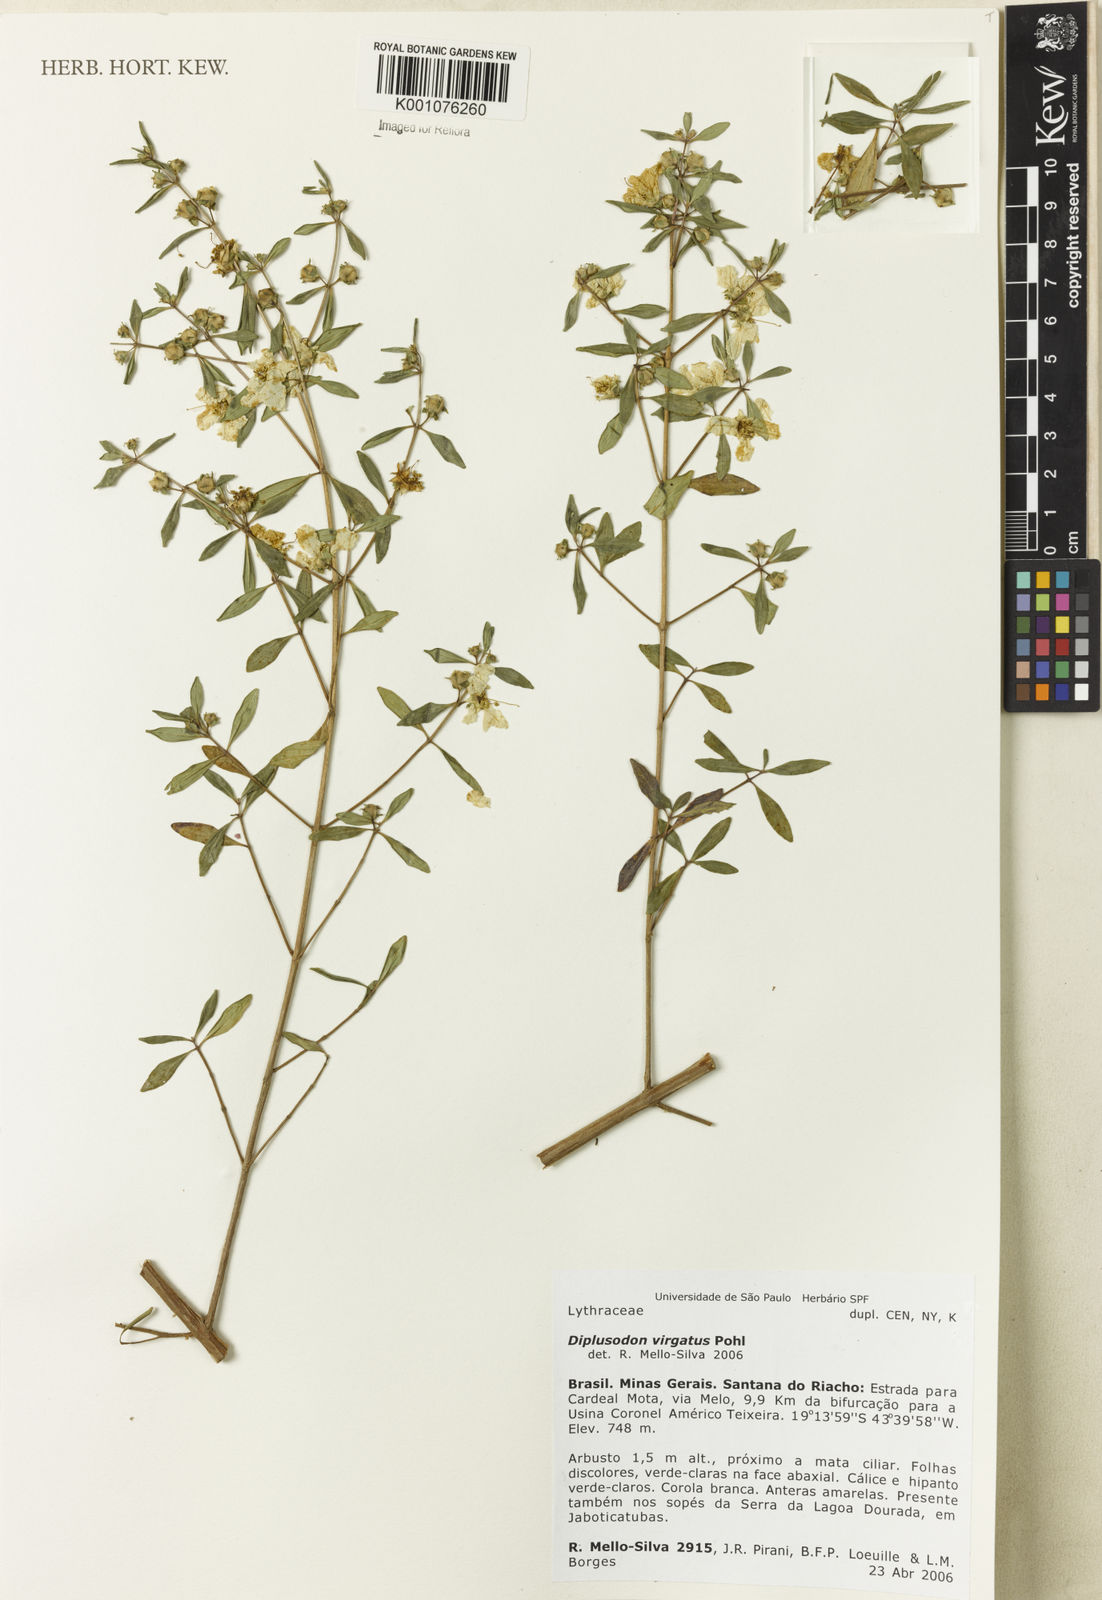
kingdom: Plantae
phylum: Tracheophyta
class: Magnoliopsida
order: Myrtales
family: Lythraceae
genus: Diplusodon
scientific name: Diplusodon virgatus
